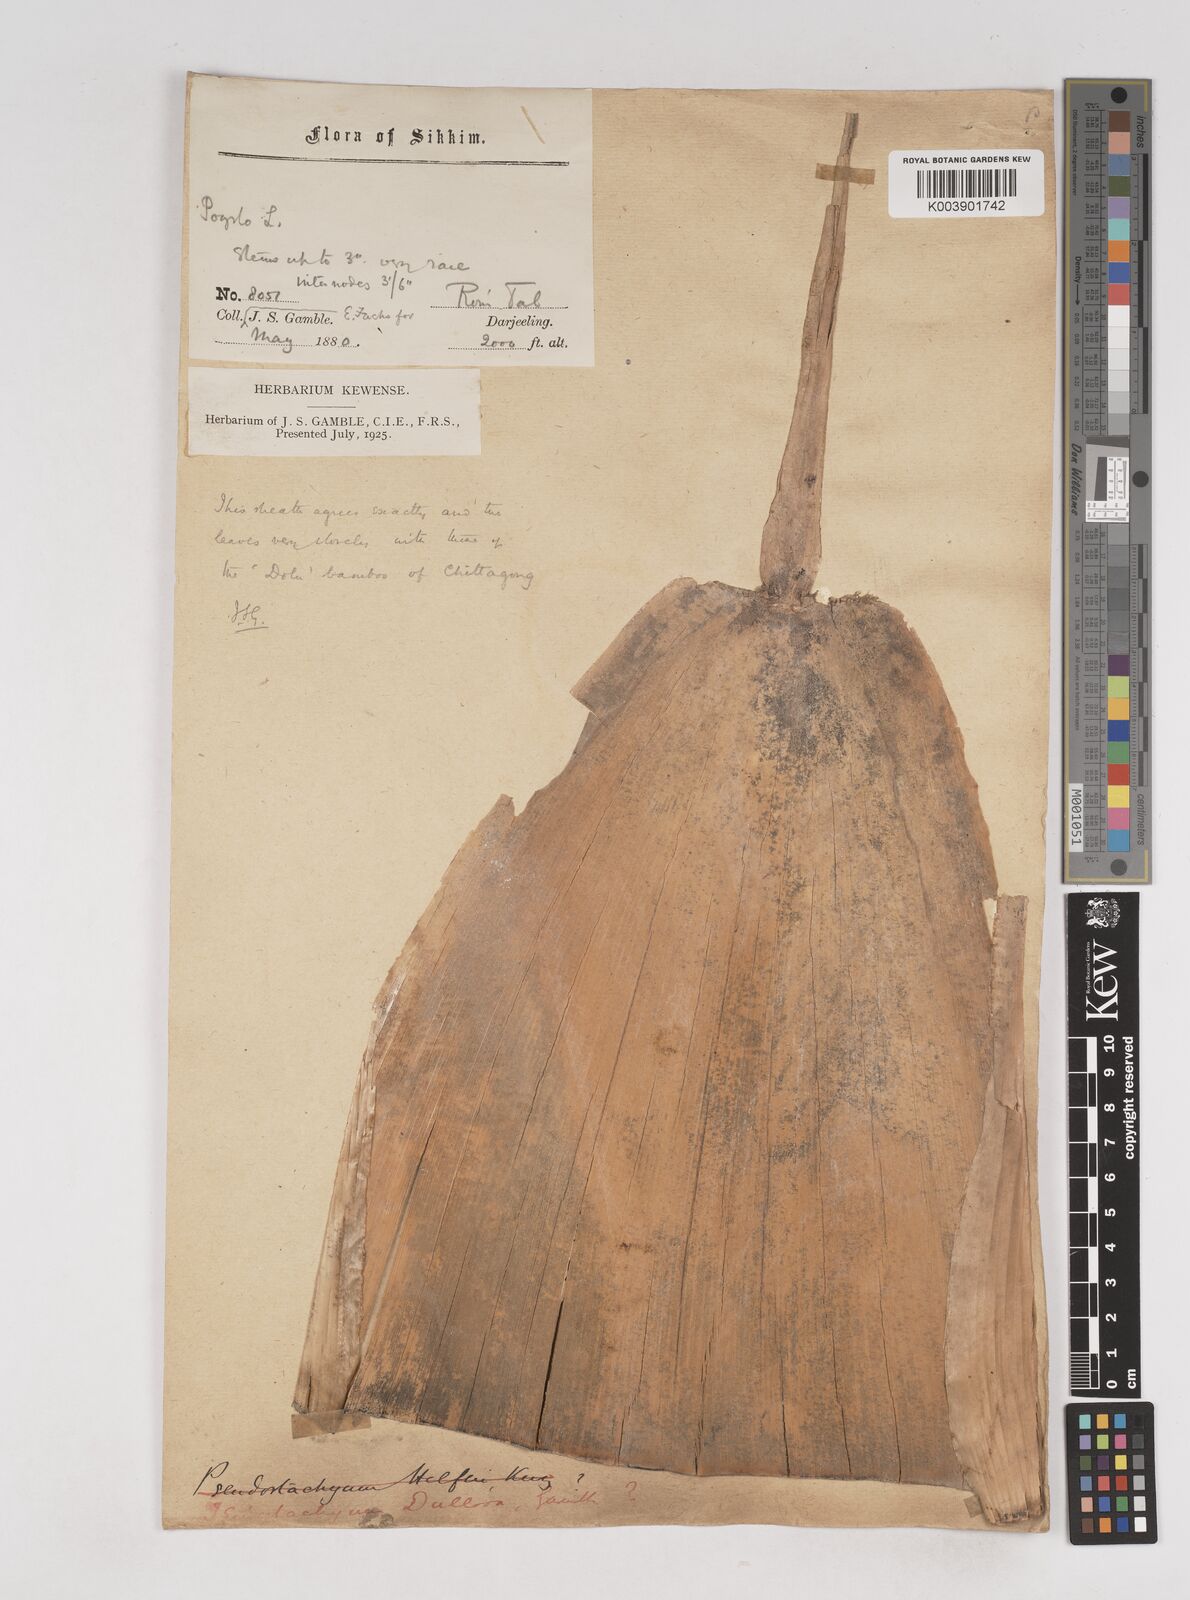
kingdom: Plantae
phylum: Tracheophyta
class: Liliopsida
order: Poales
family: Poaceae
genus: Schizostachyum
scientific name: Schizostachyum dullooa
